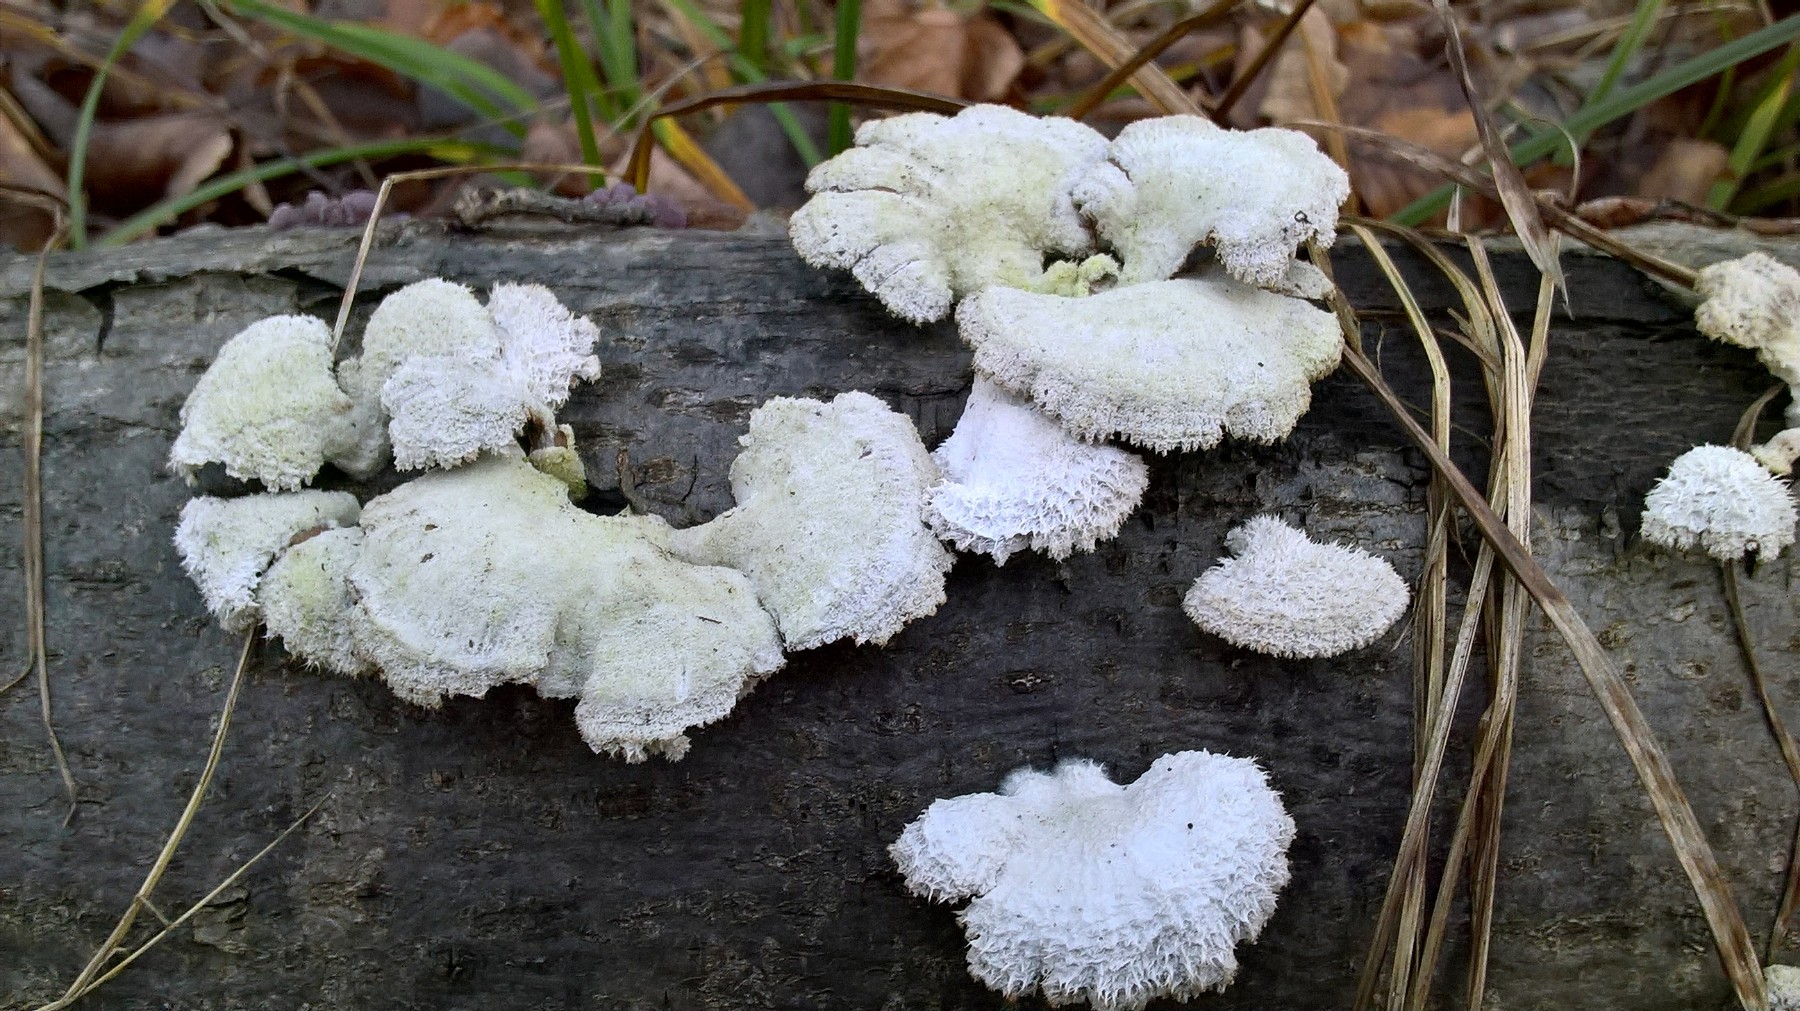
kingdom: Fungi
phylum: Basidiomycota
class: Agaricomycetes
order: Agaricales
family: Schizophyllaceae
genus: Schizophyllum
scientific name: Schizophyllum commune
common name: kløvblad
